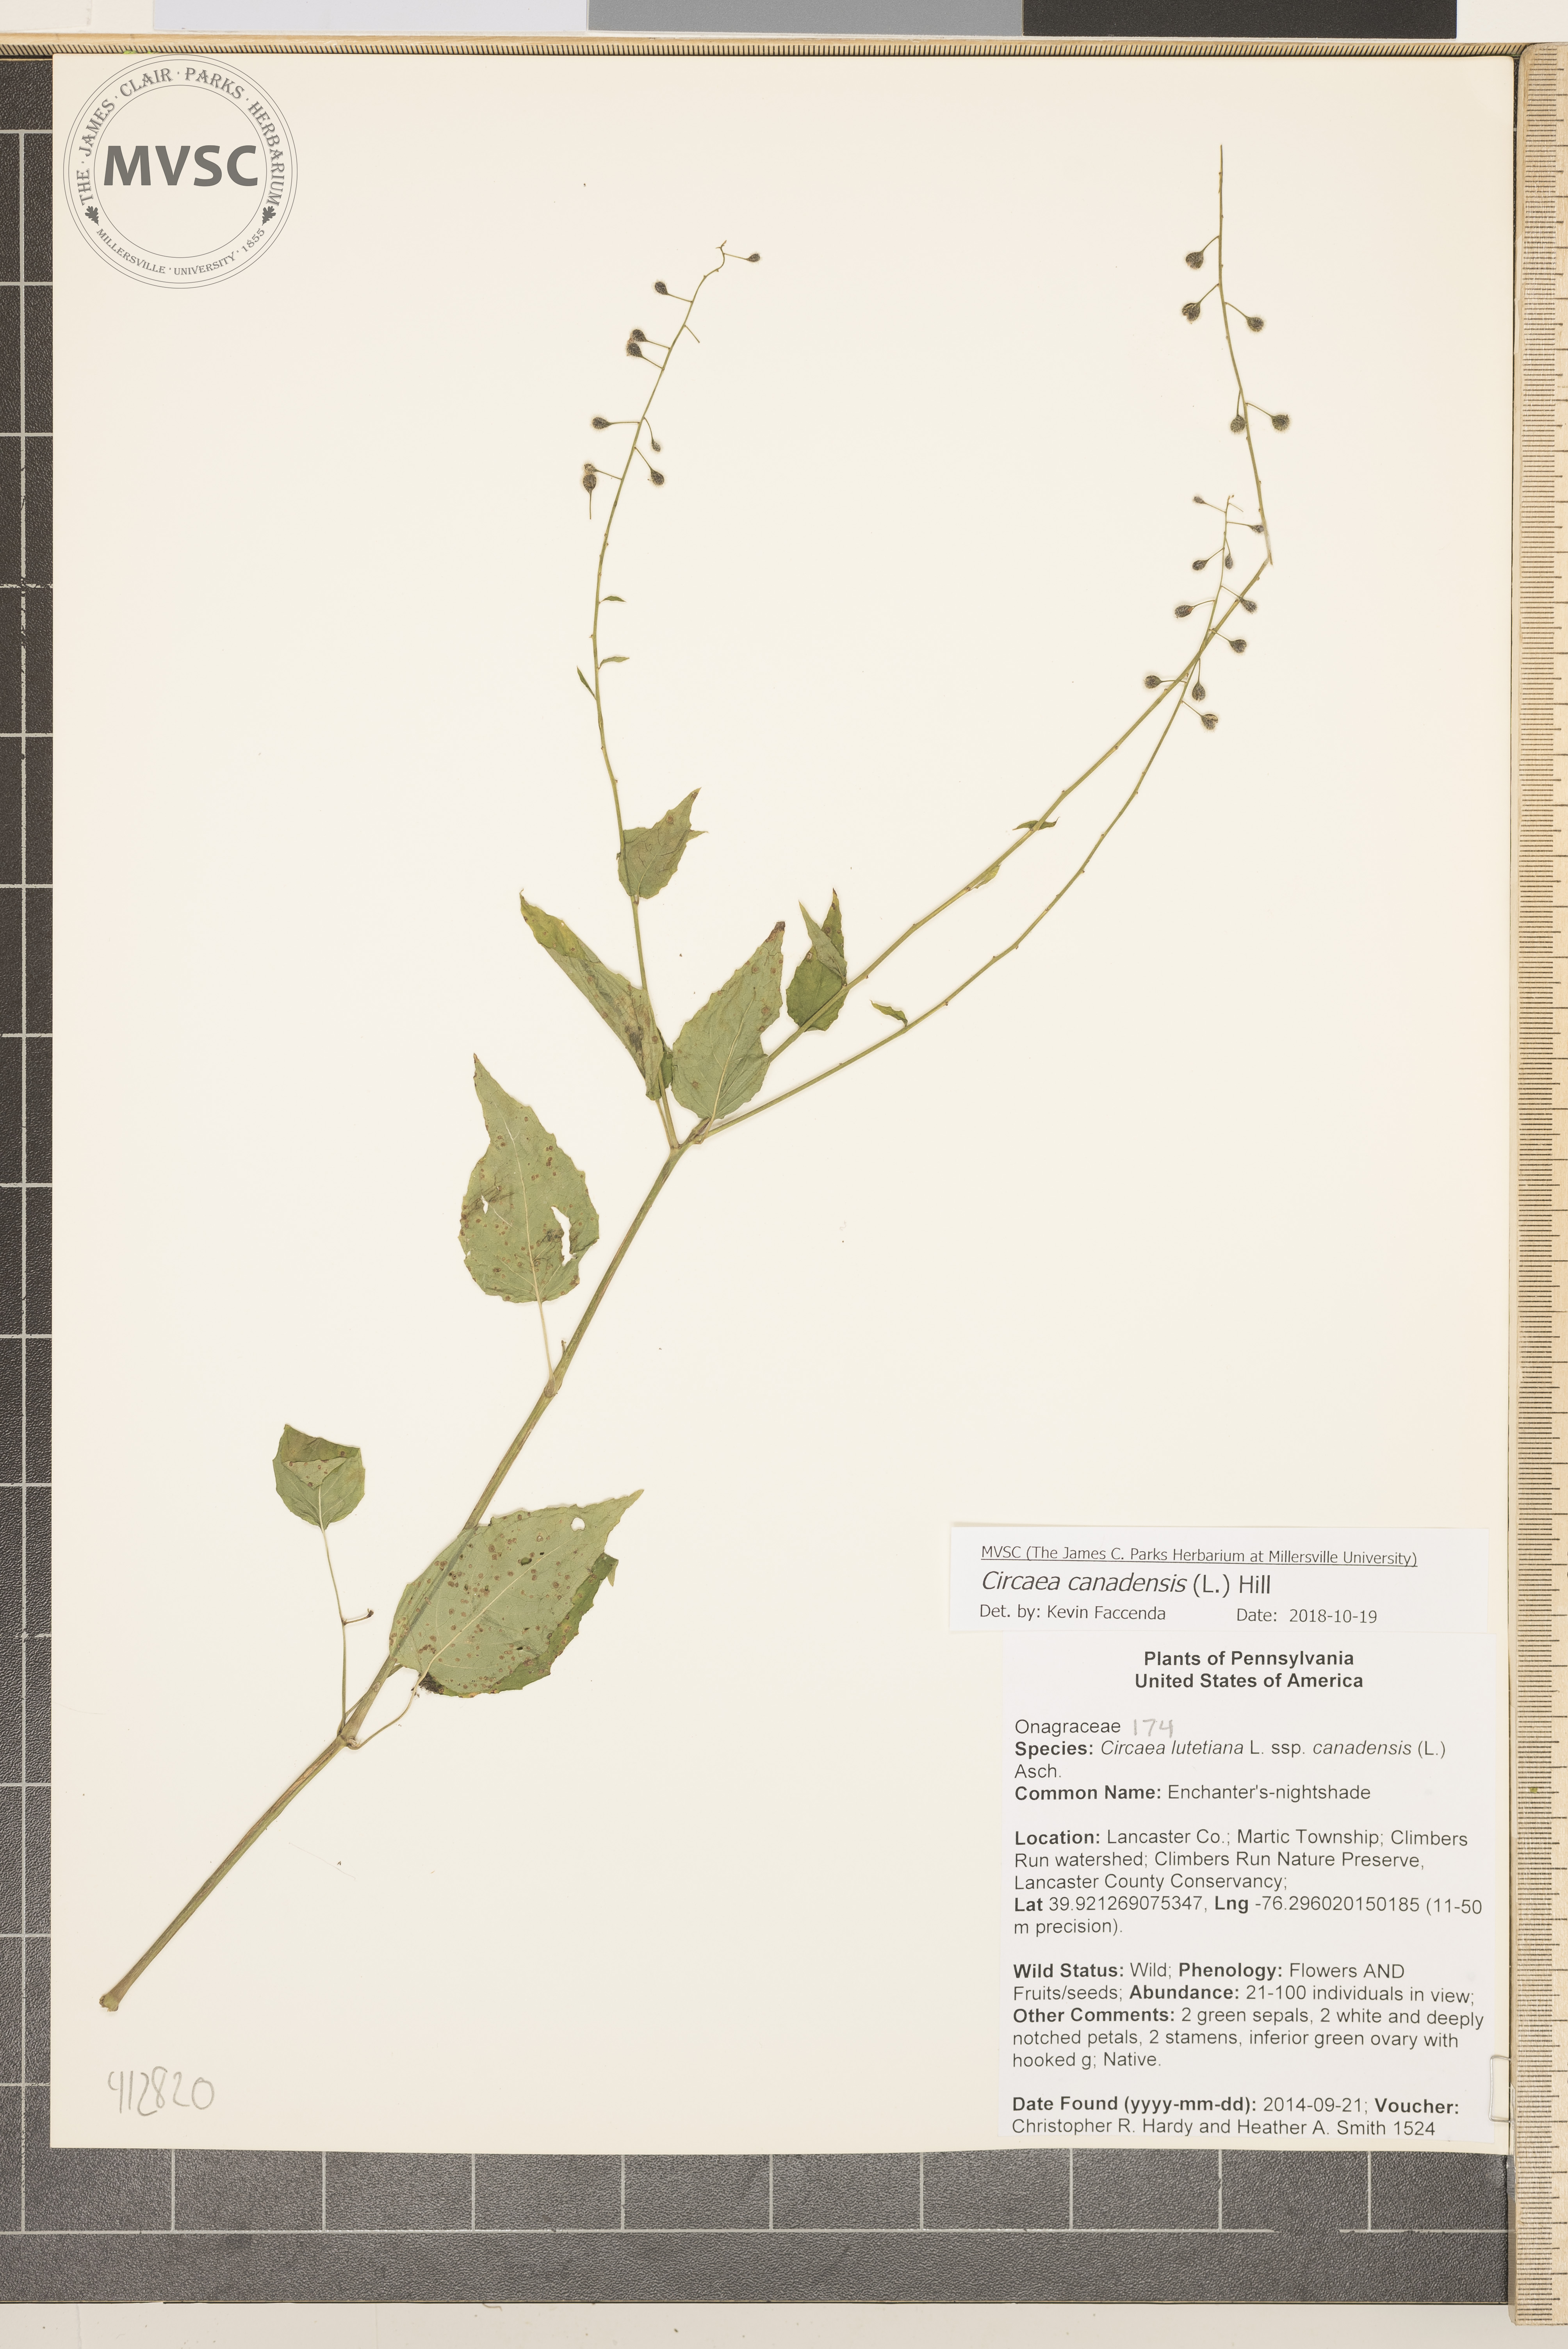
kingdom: Plantae
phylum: Tracheophyta
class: Magnoliopsida
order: Myrtales
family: Onagraceae
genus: Circaea
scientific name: Circaea canadensis
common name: enchanter's-nightshade
